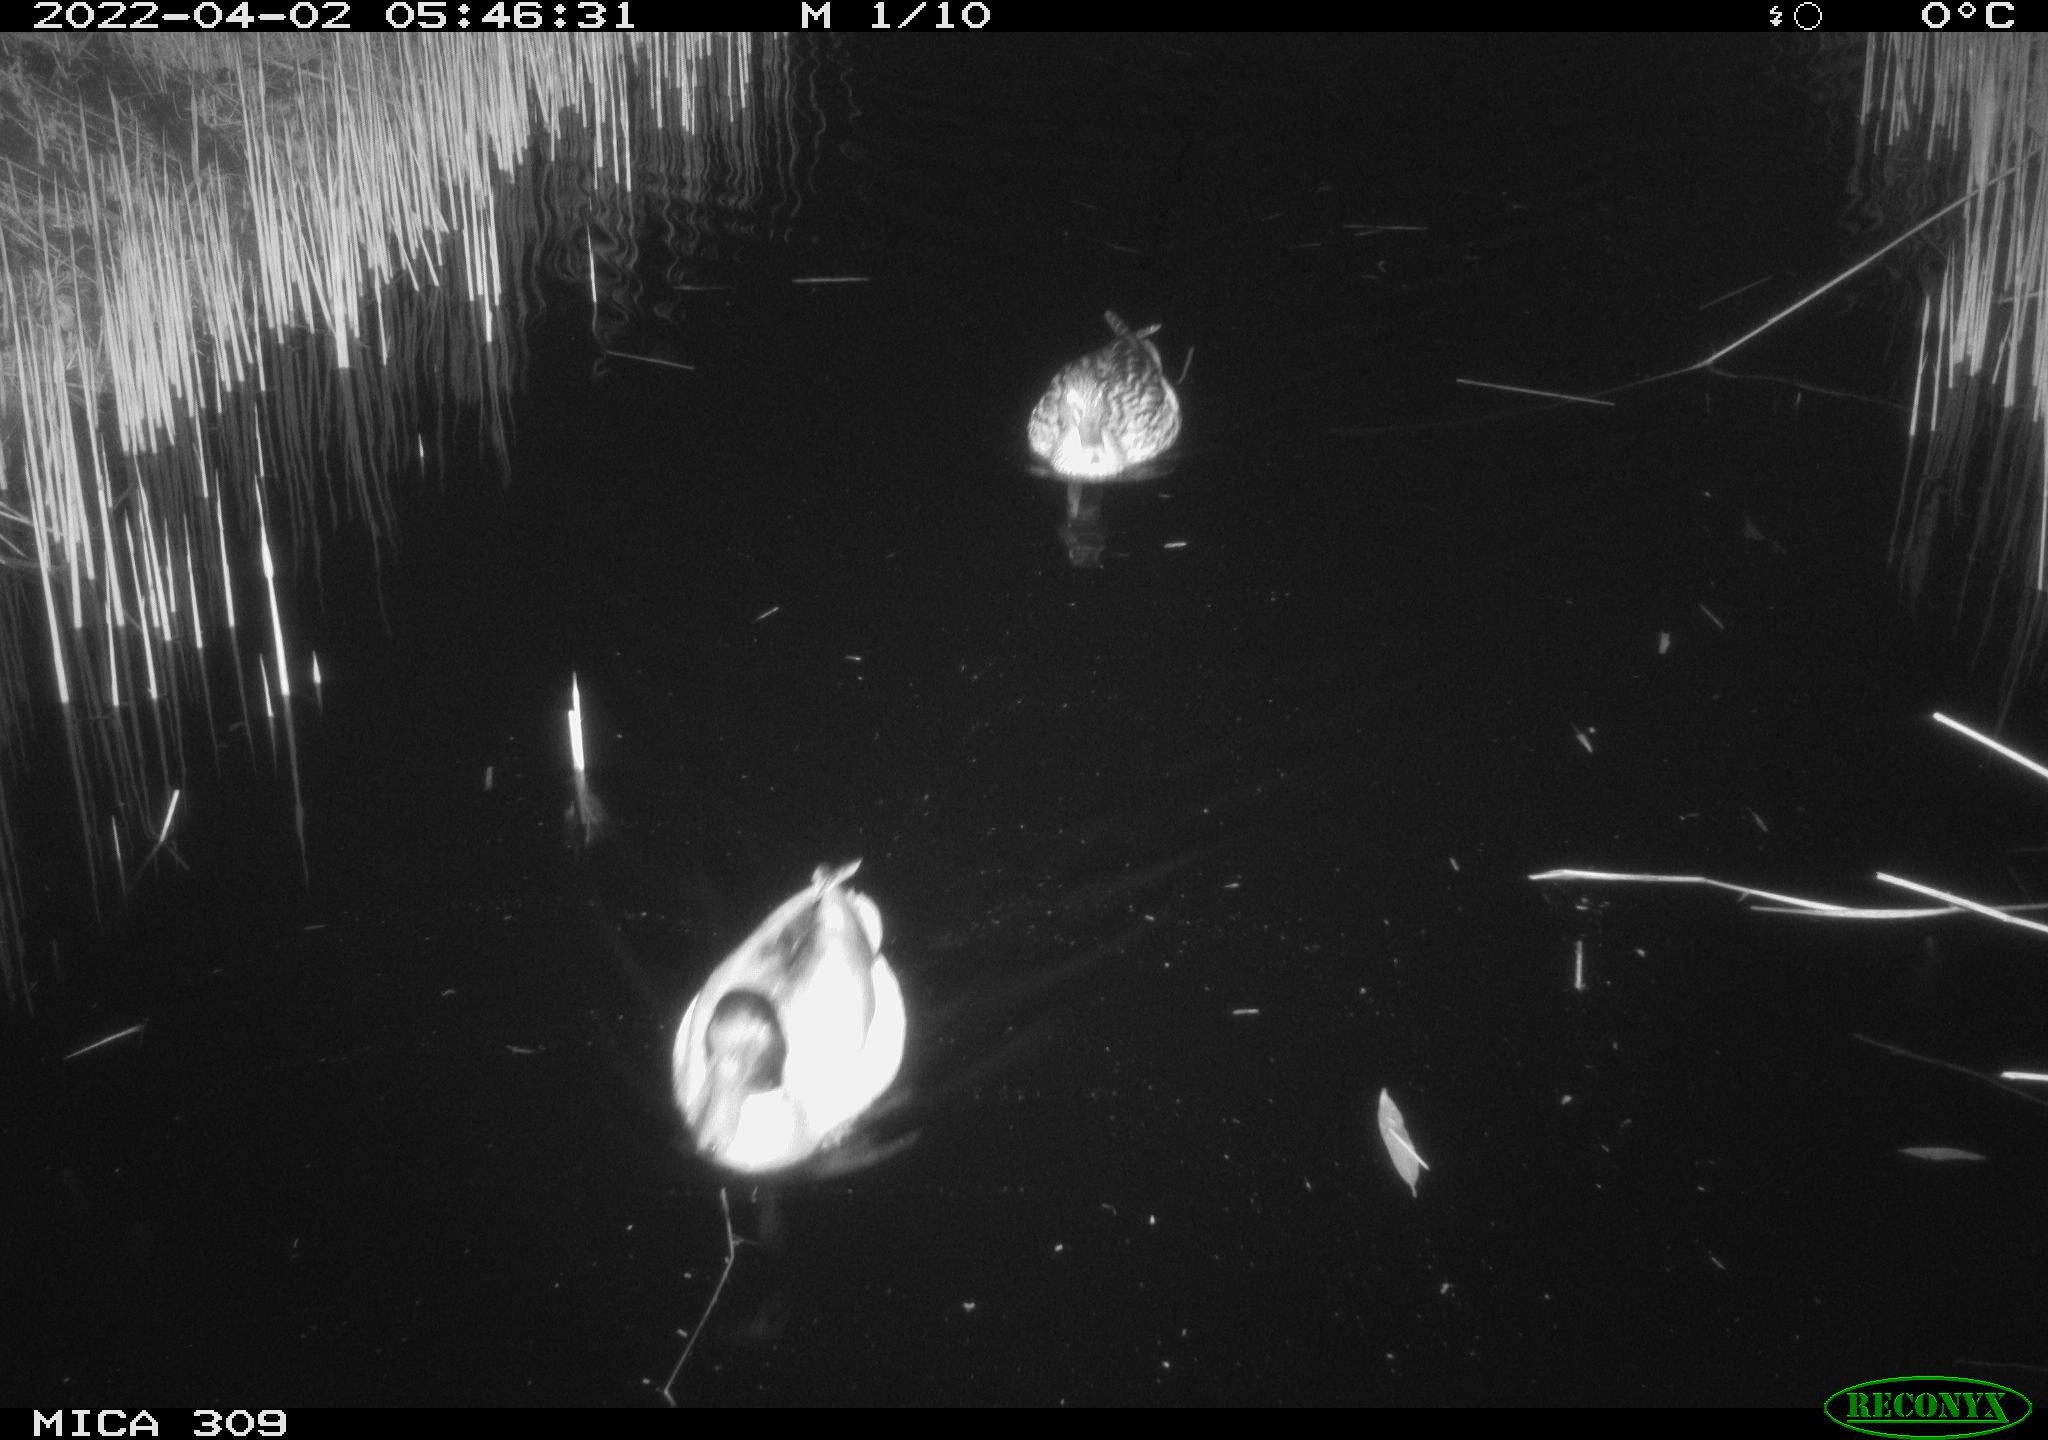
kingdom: Animalia
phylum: Chordata
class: Aves
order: Anseriformes
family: Anatidae
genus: Anas
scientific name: Anas platyrhynchos
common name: Mallard
